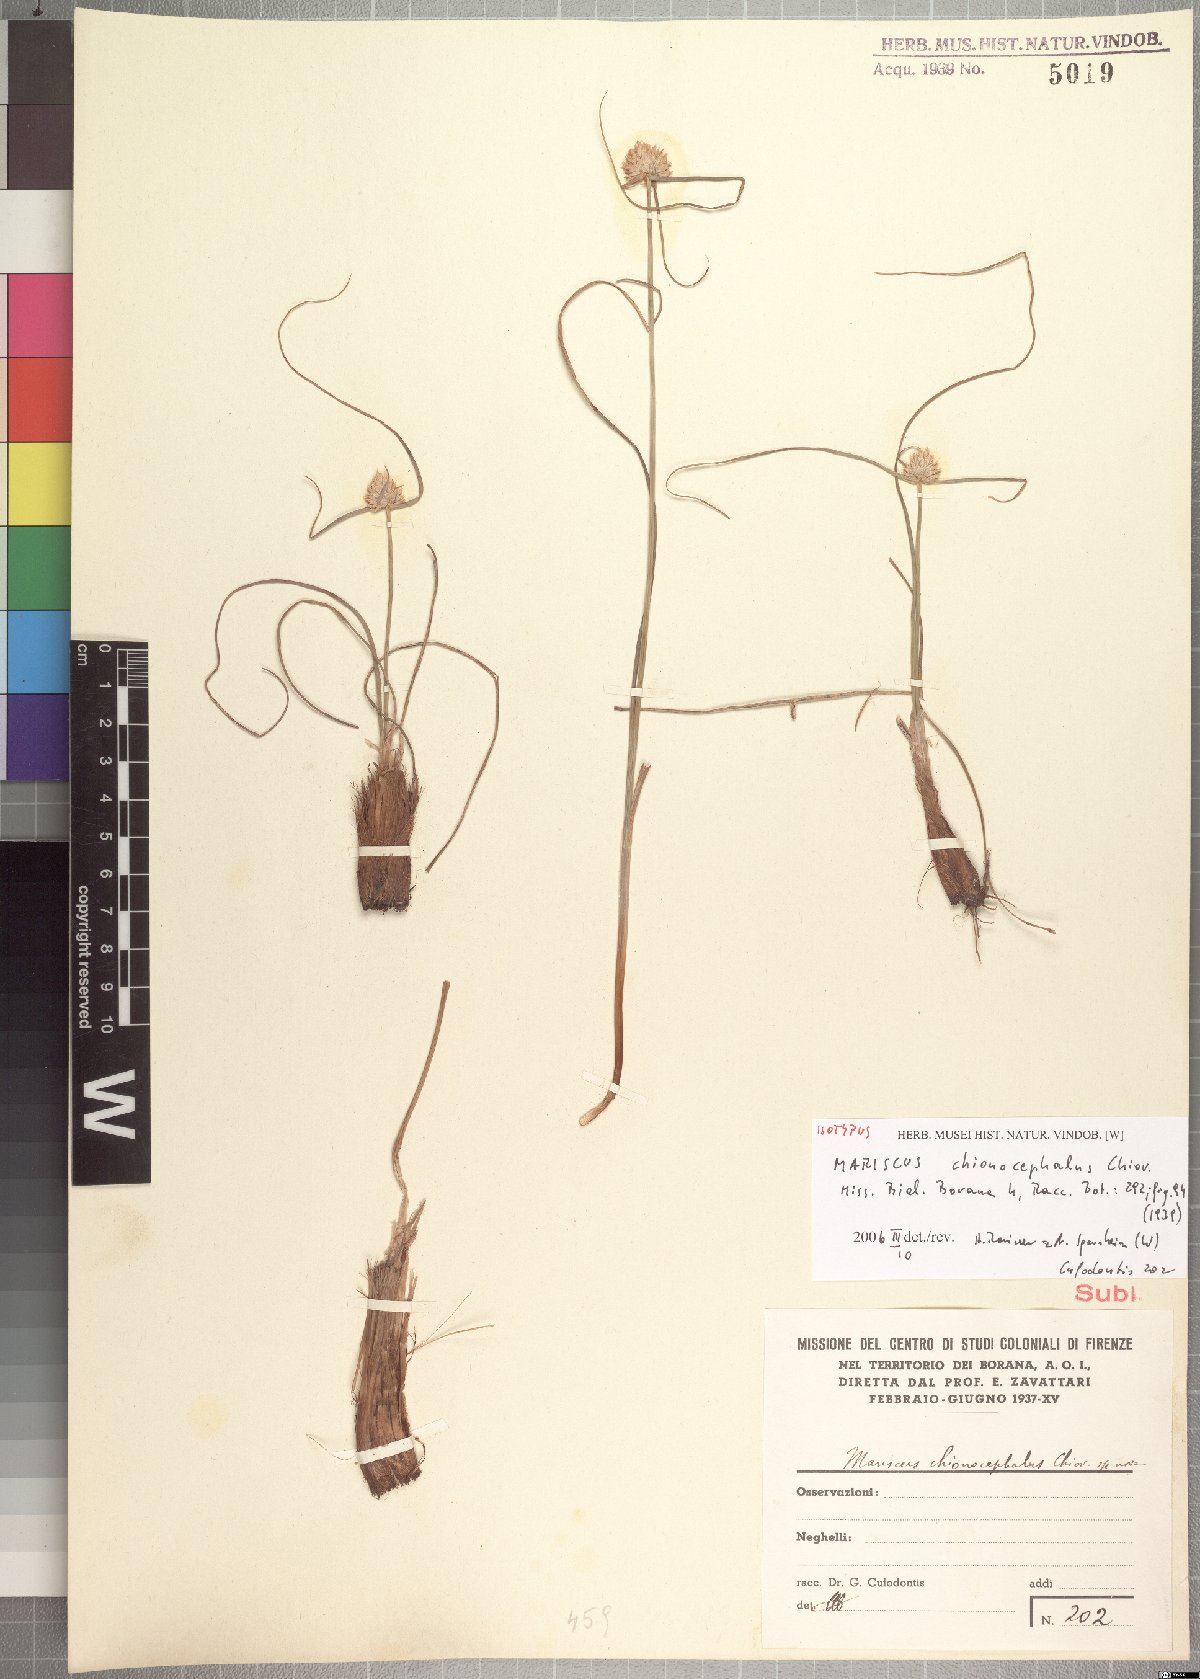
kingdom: Plantae
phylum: Tracheophyta
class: Liliopsida
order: Poales
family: Cyperaceae
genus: Cyperus
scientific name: Cyperus chionocephalus
